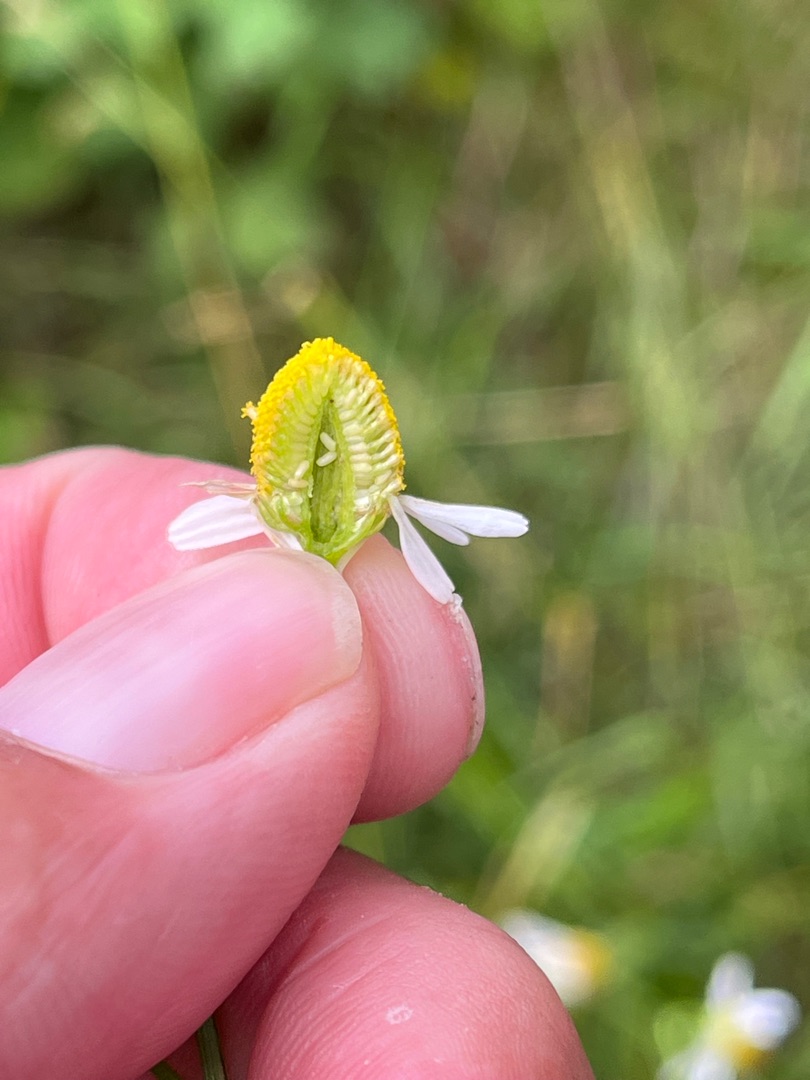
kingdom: Plantae
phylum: Tracheophyta
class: Magnoliopsida
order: Asterales
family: Asteraceae
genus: Matricaria
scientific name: Matricaria chamomilla
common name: Vellugtende kamille
